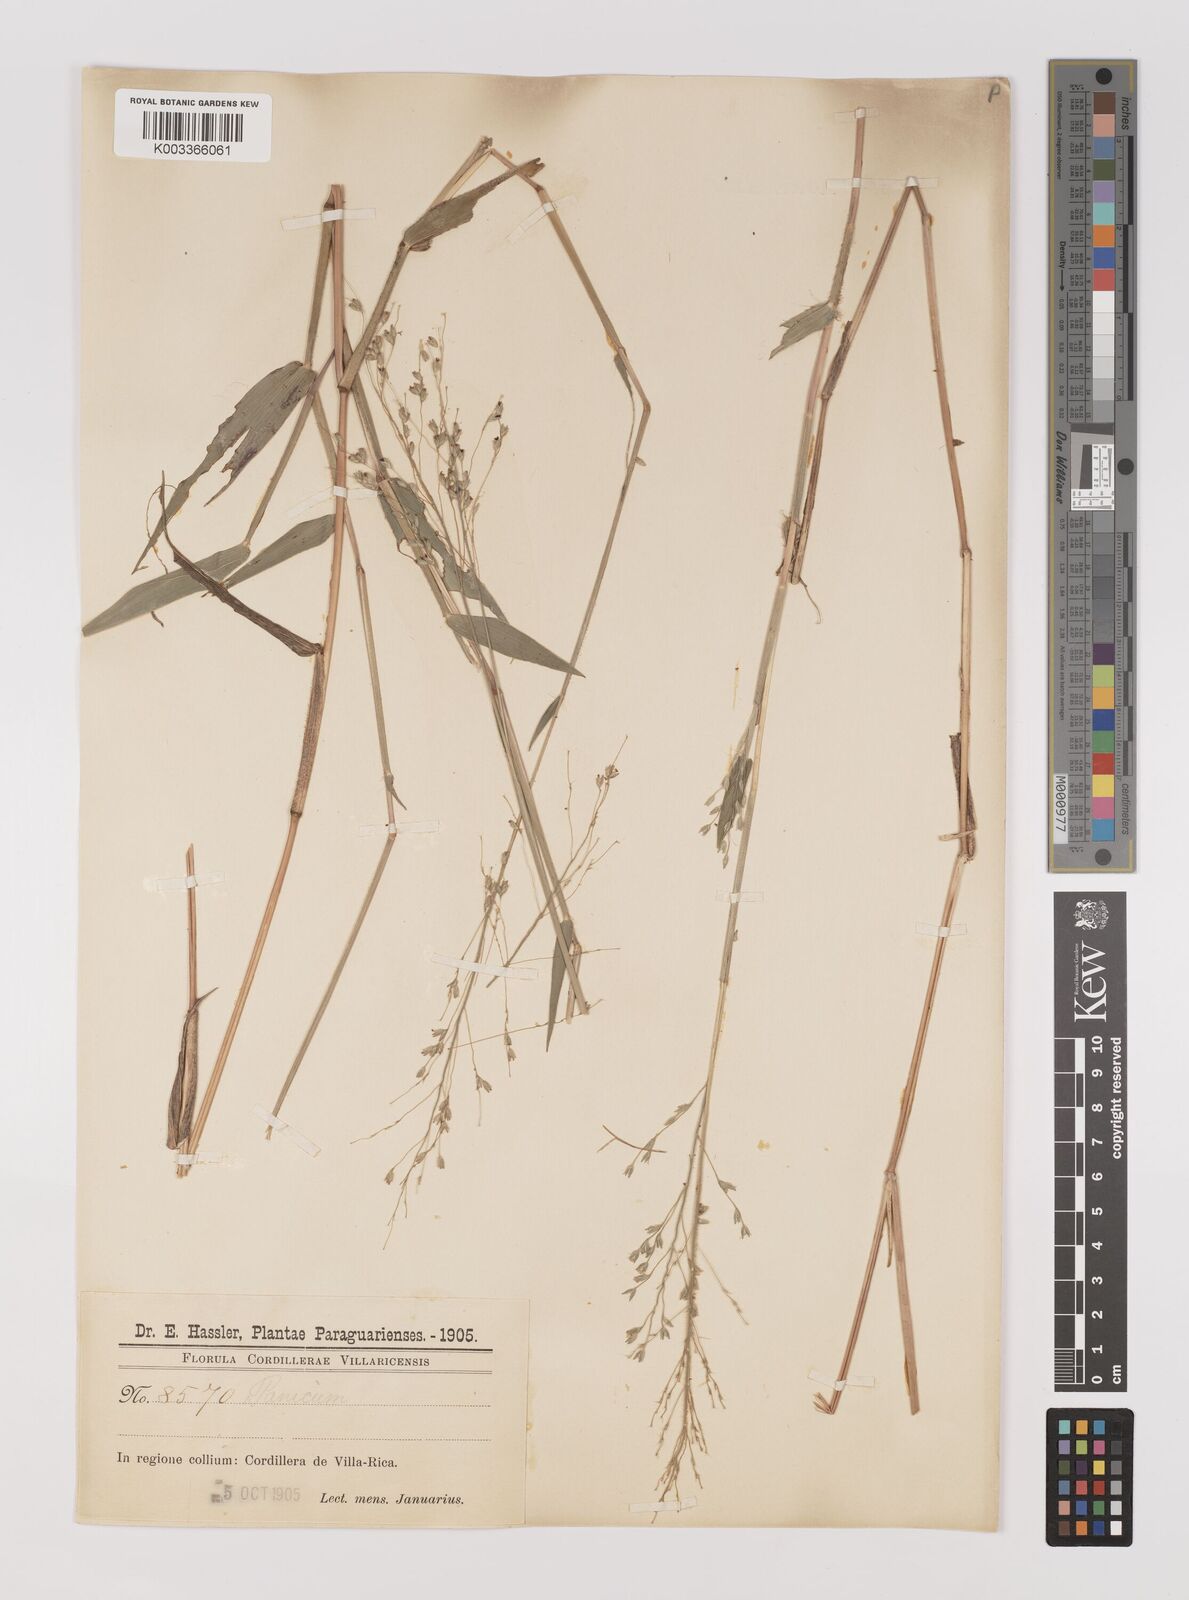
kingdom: Plantae
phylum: Tracheophyta
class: Liliopsida
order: Poales
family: Poaceae
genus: Oedochloa
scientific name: Oedochloa procurrens
